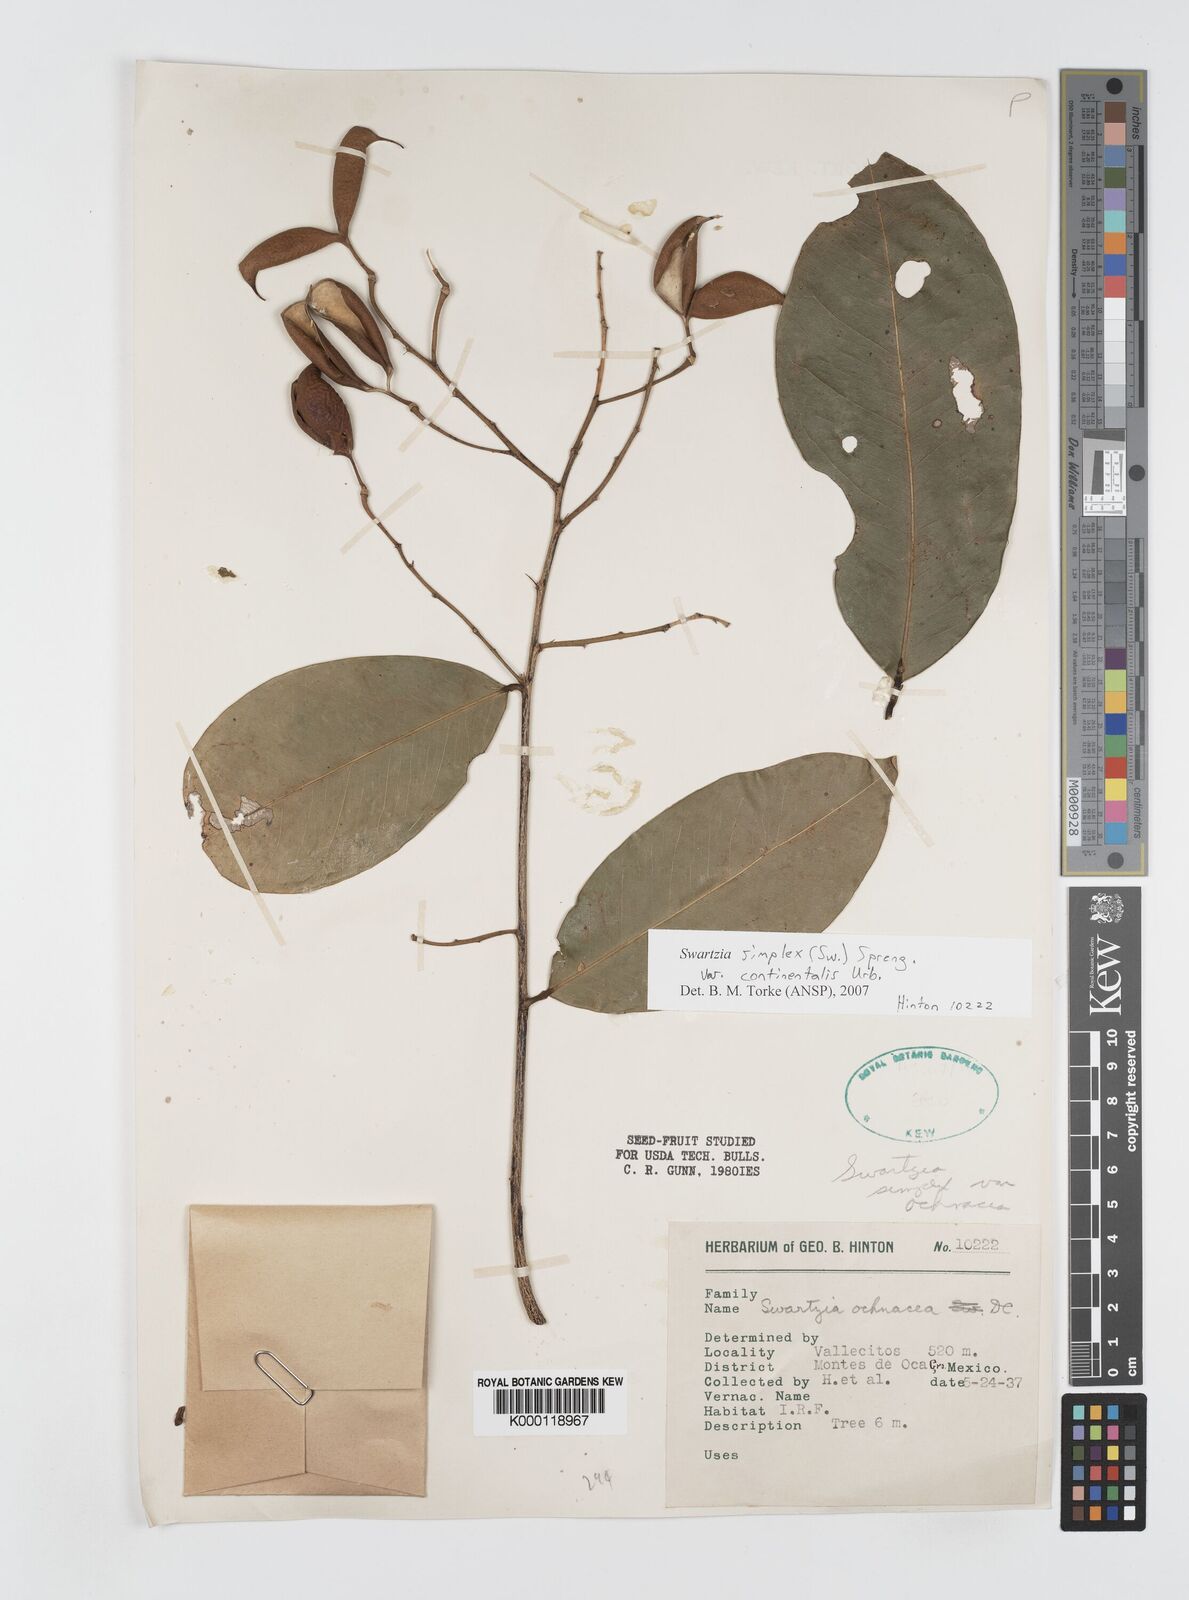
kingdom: Plantae
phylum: Tracheophyta
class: Magnoliopsida
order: Fabales
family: Fabaceae
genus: Swartzia
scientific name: Swartzia simplex
